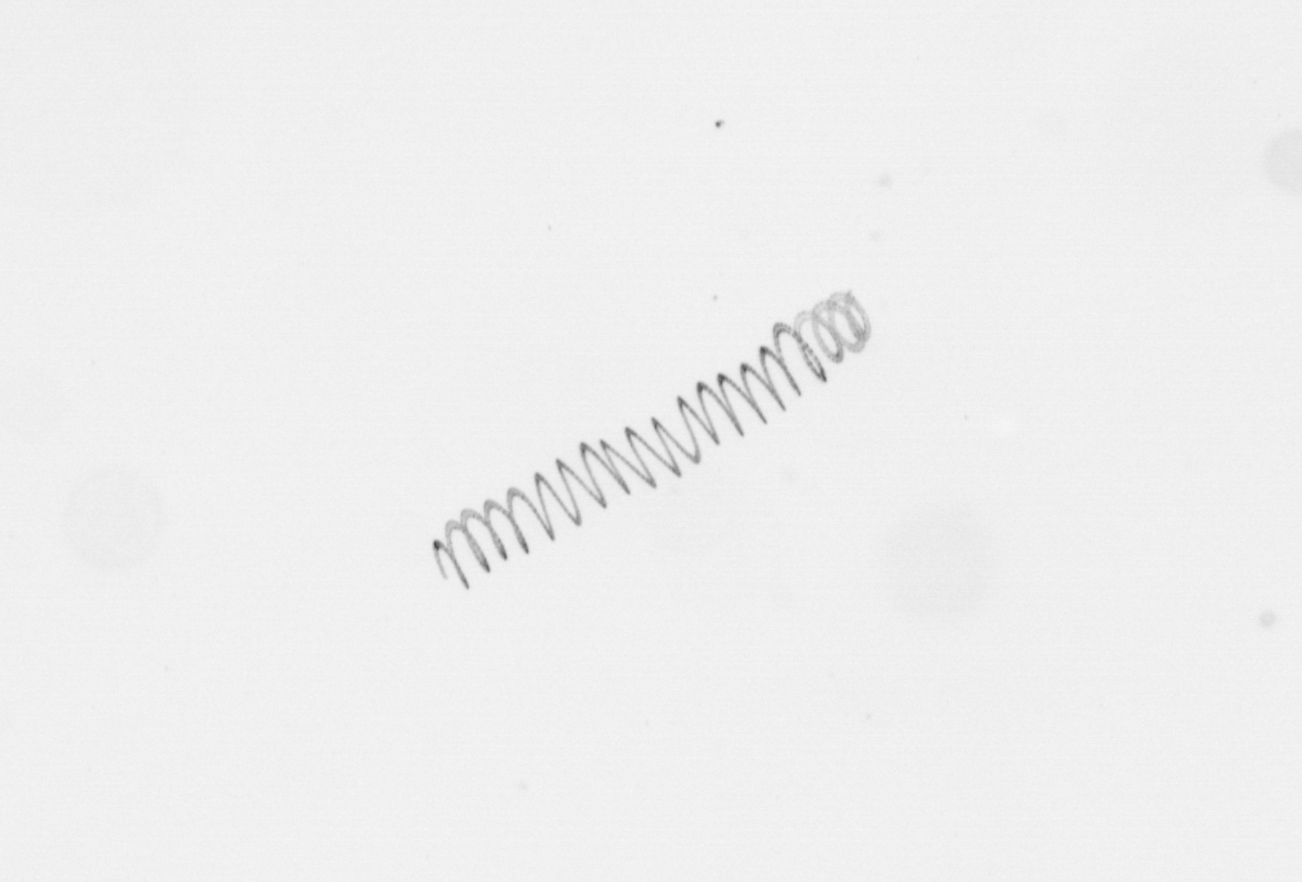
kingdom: Chromista
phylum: Ochrophyta
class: Bacillariophyceae
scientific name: Bacillariophyceae
